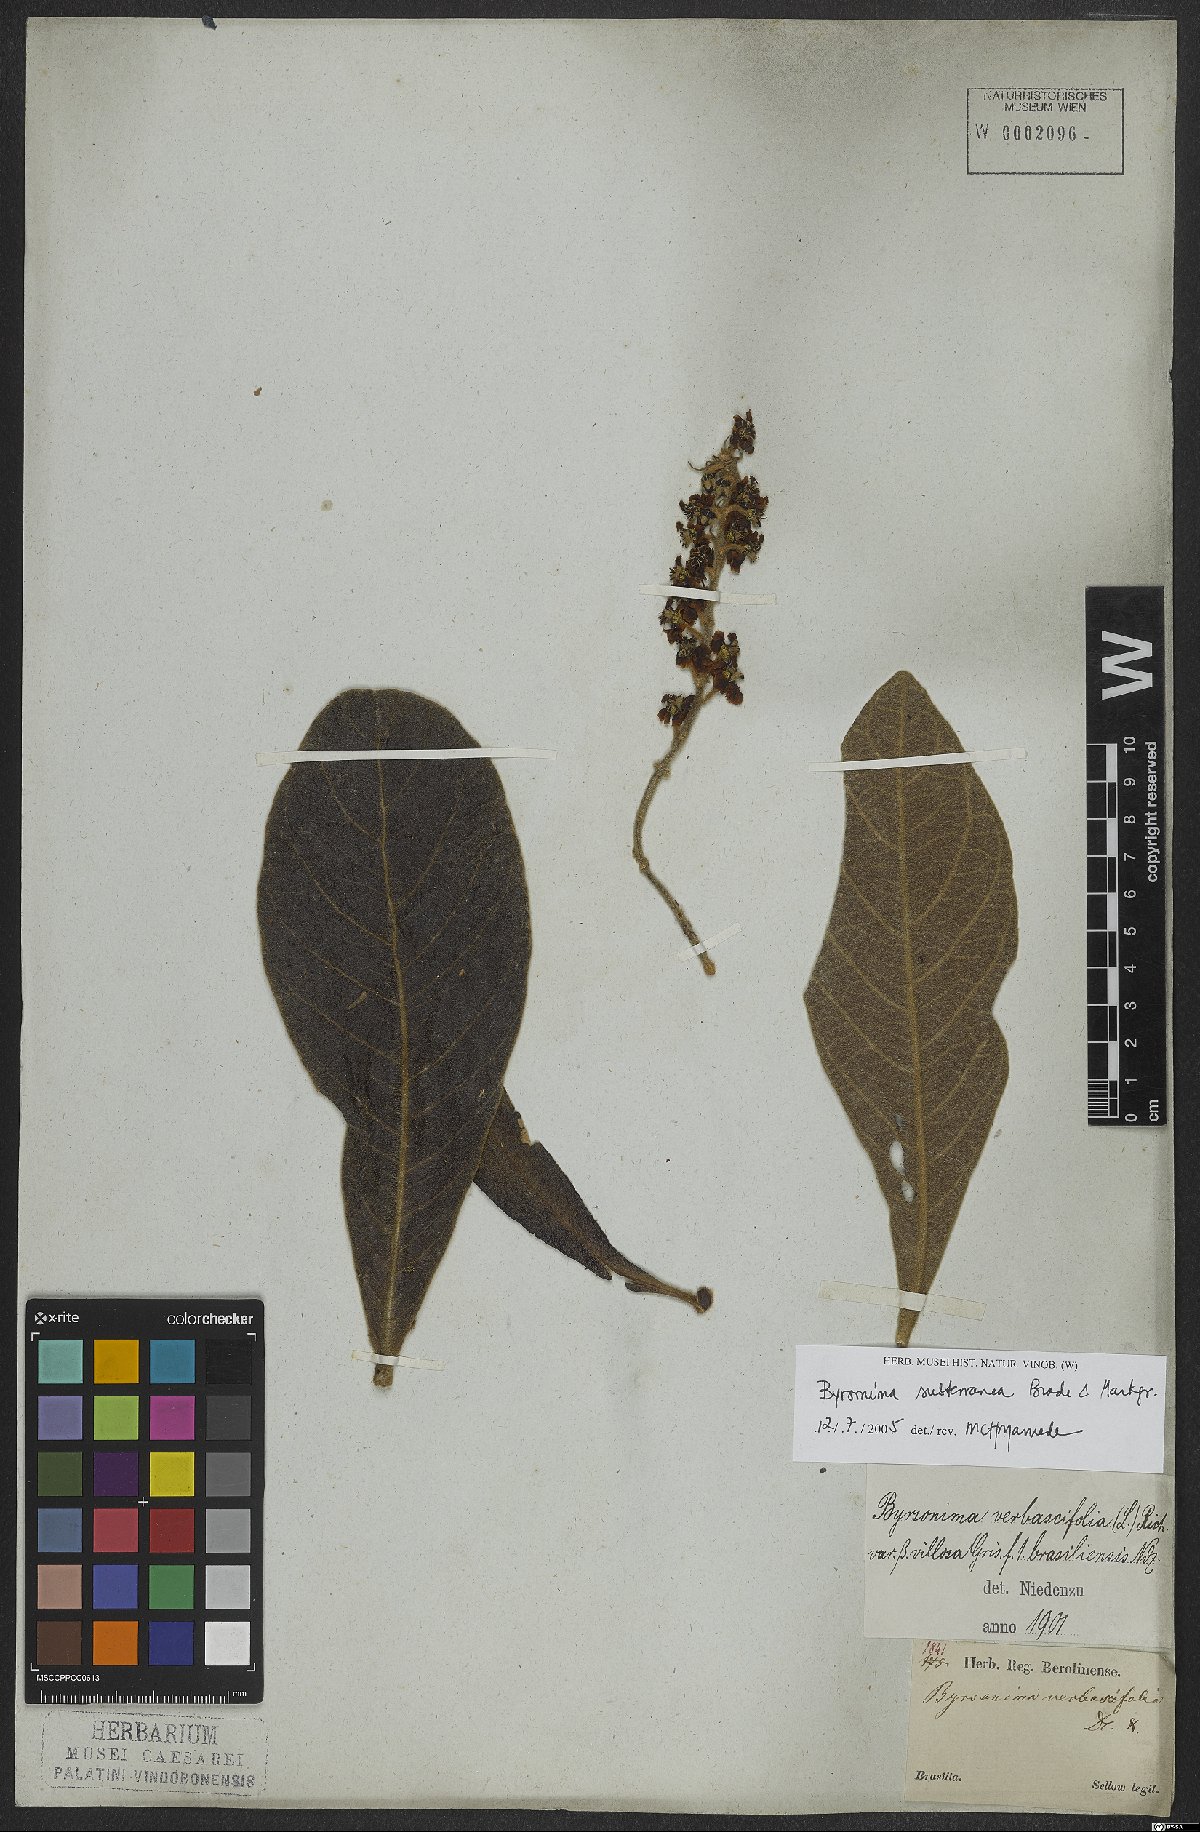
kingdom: Plantae
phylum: Tracheophyta
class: Magnoliopsida
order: Malpighiales
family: Malpighiaceae
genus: Byrsonima
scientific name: Byrsonima subterranea
